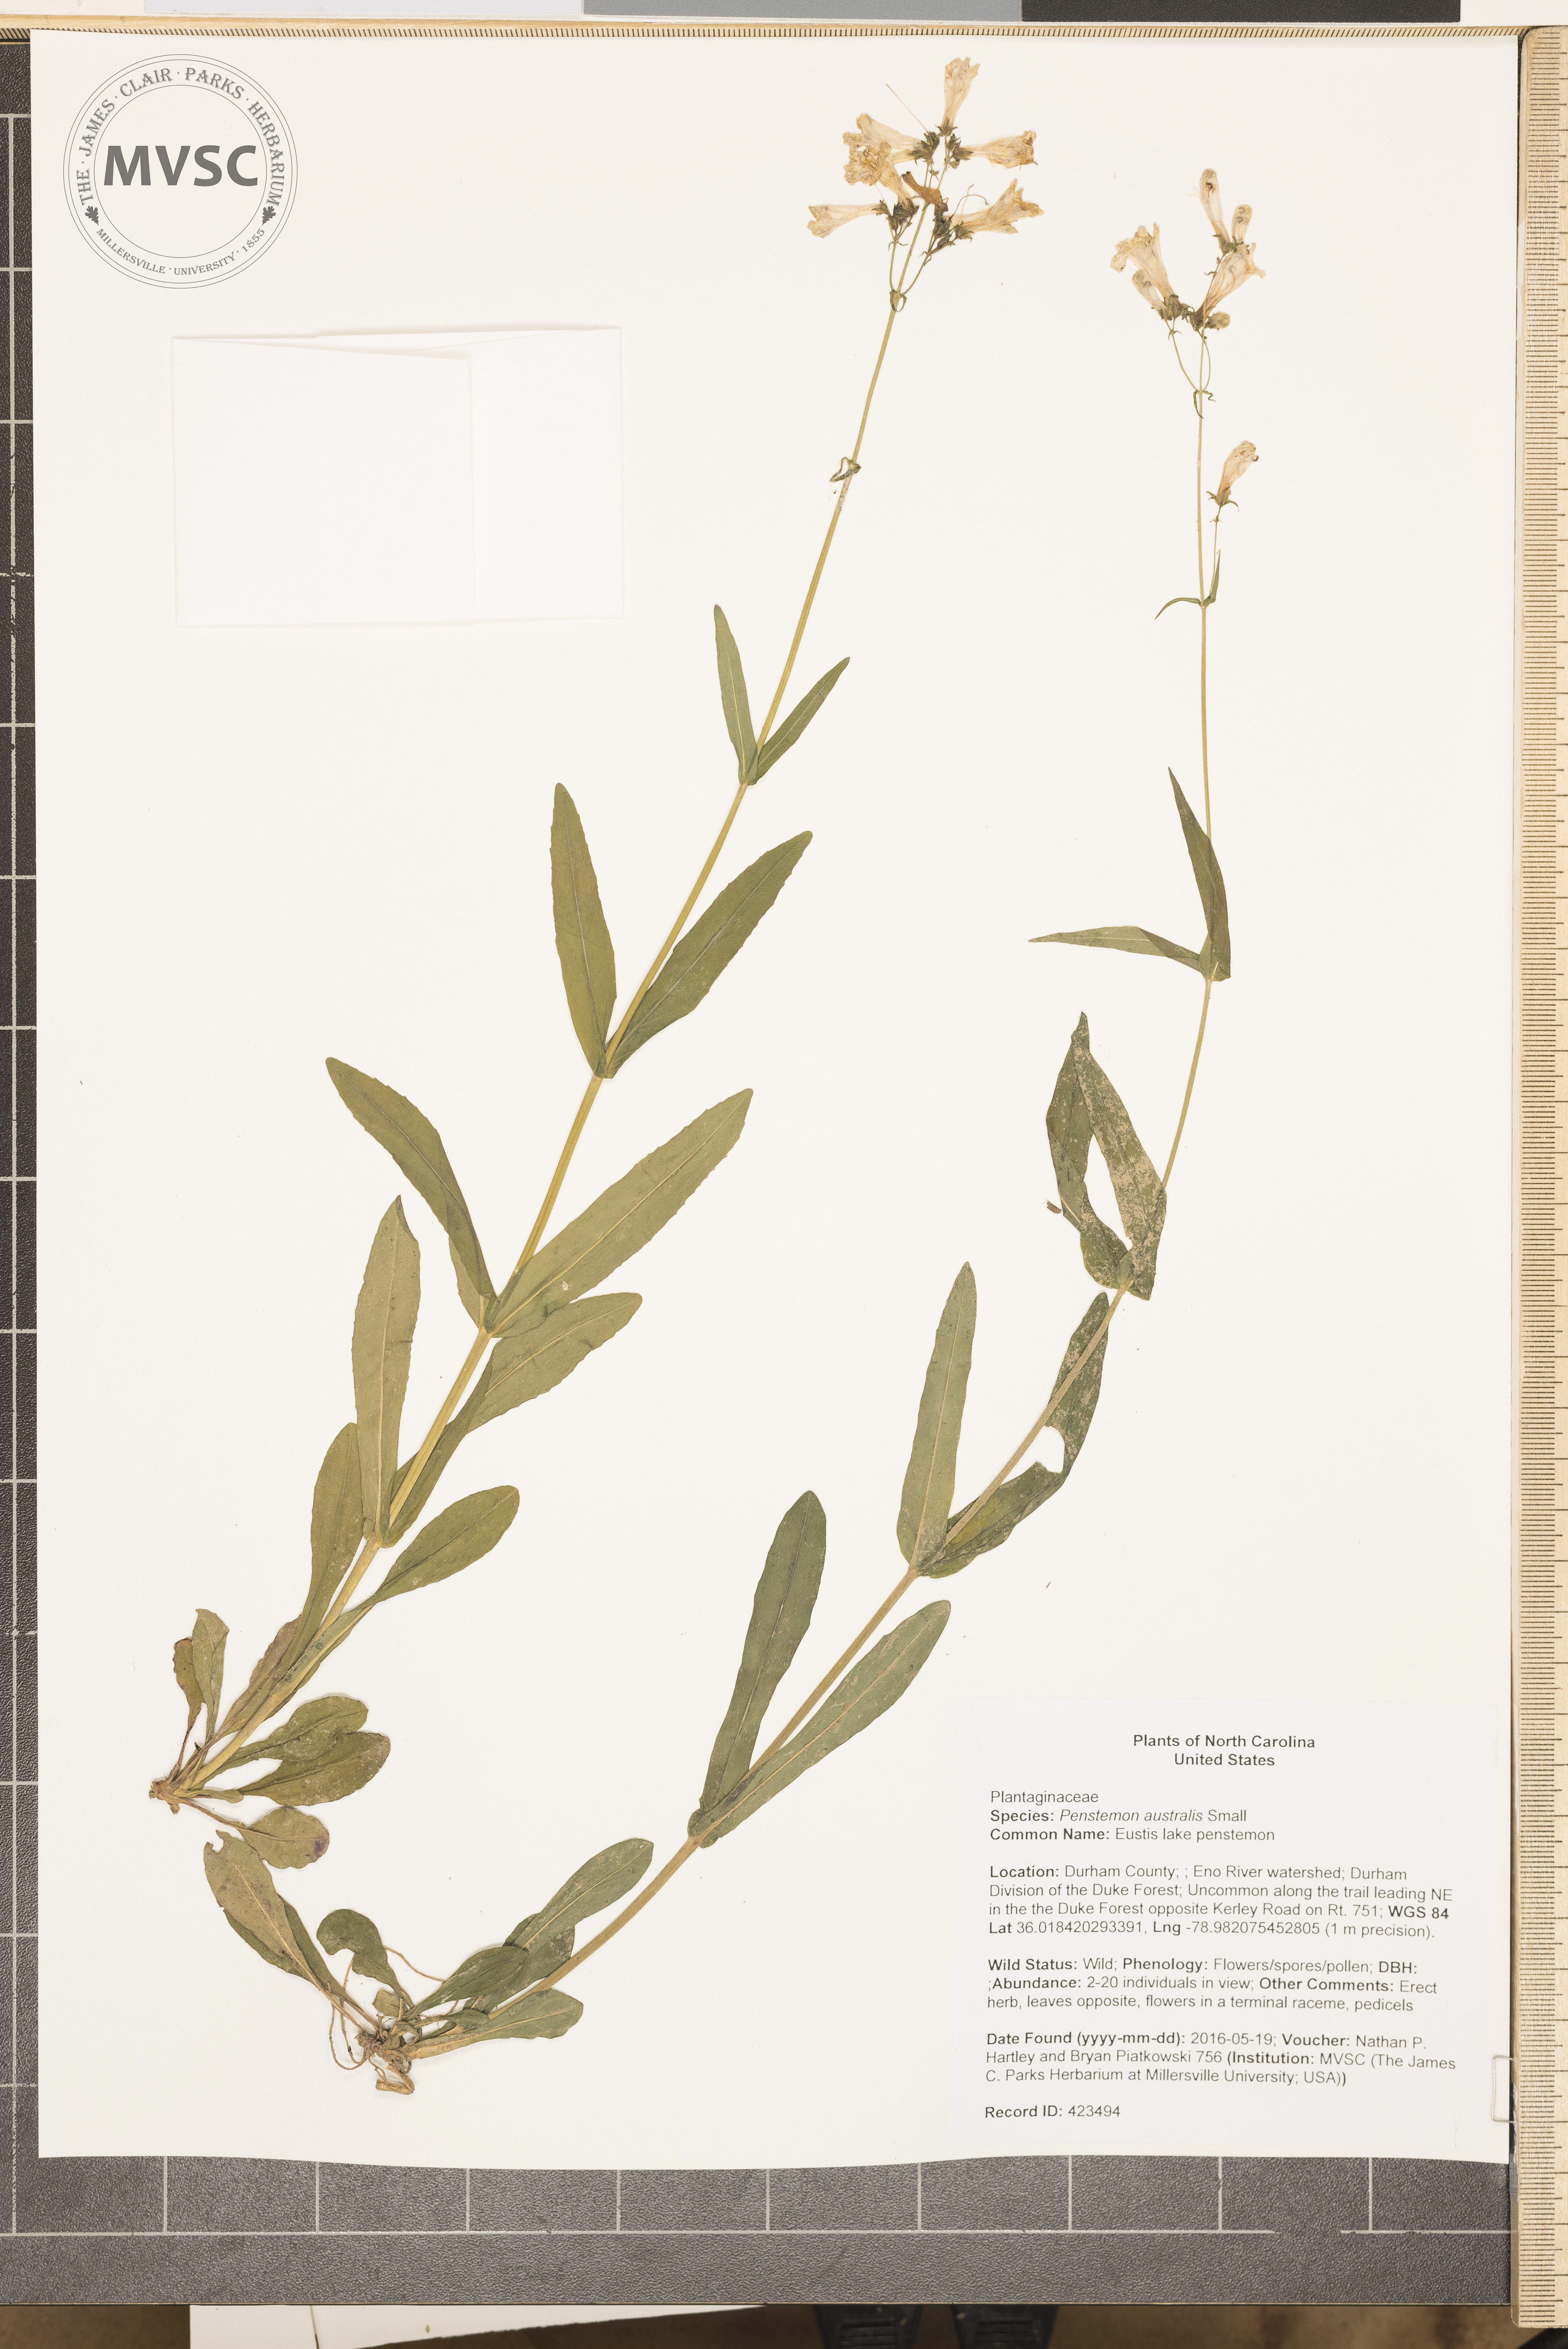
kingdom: Plantae
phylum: Tracheophyta
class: Magnoliopsida
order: Lamiales
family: Plantaginaceae
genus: Penstemon
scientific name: Penstemon australis
